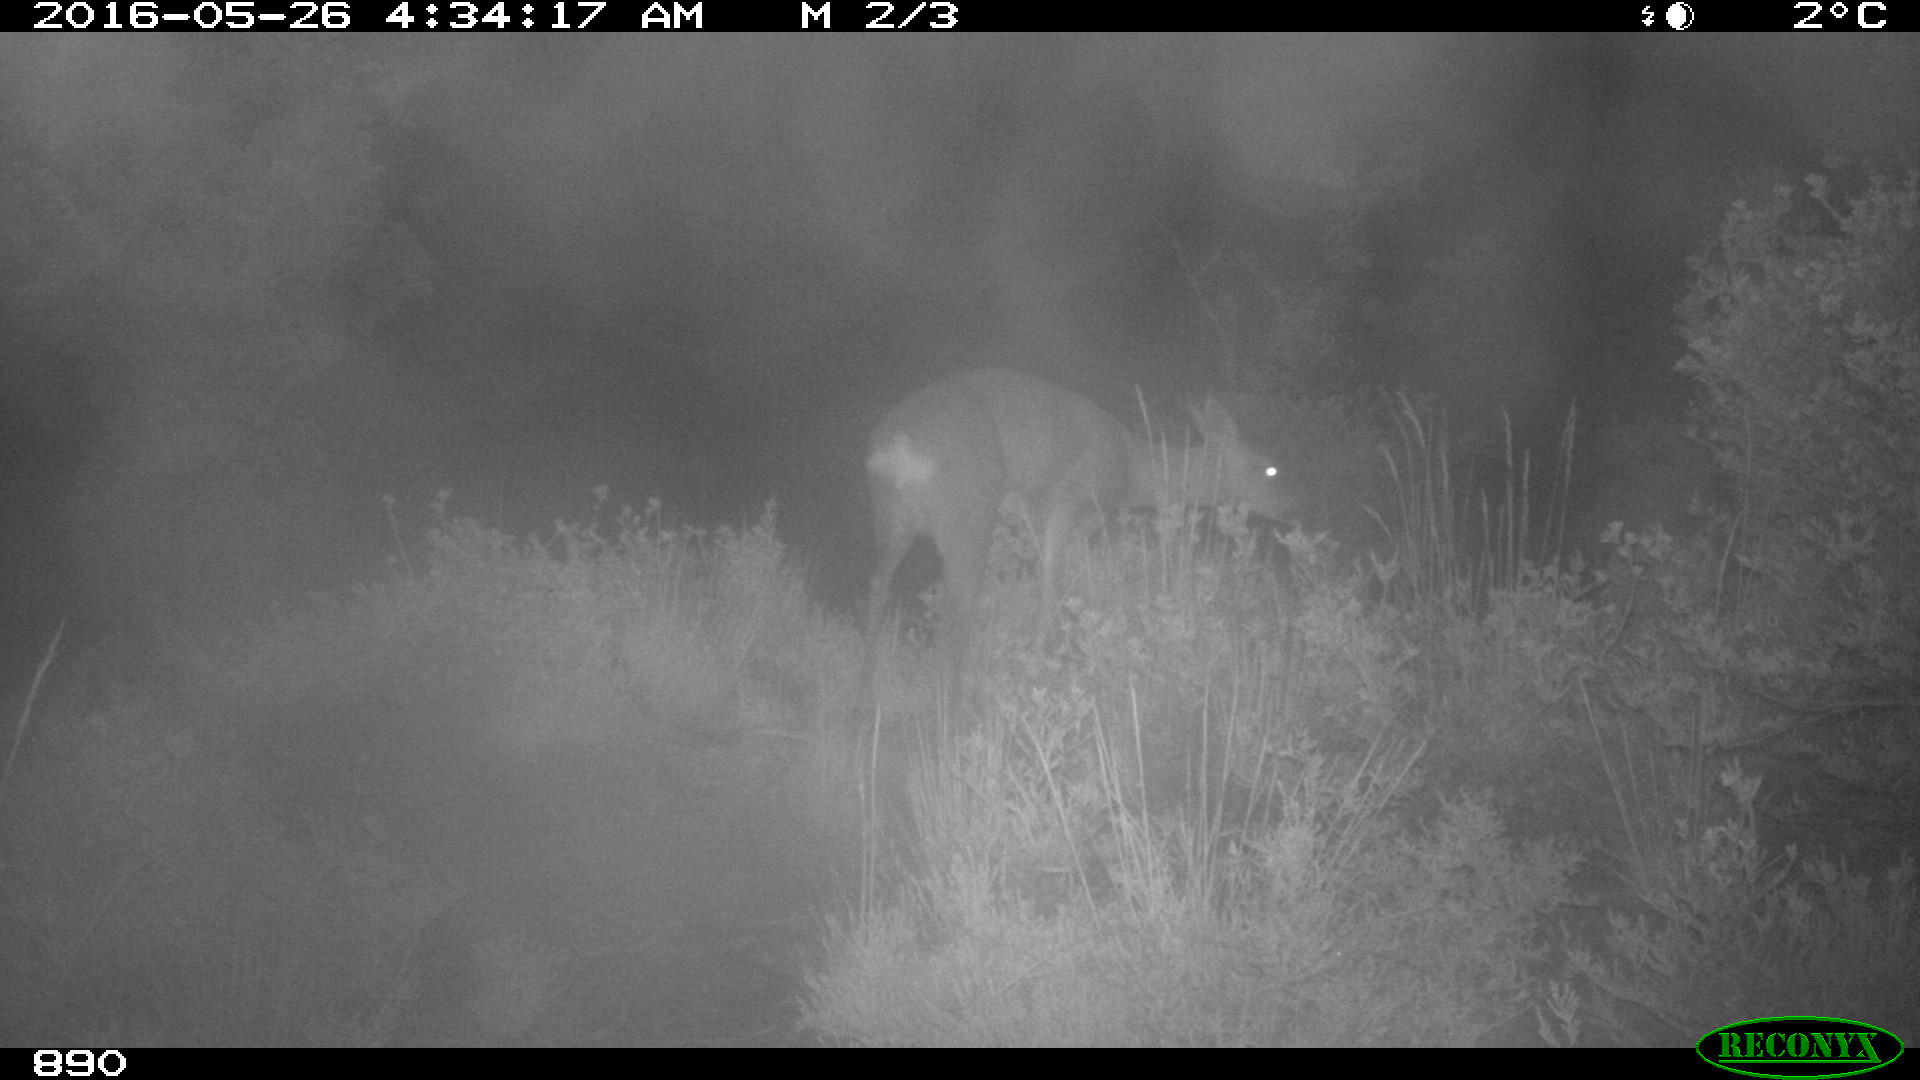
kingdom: Animalia
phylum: Chordata
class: Mammalia
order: Artiodactyla
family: Cervidae
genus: Capreolus
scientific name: Capreolus capreolus
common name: Western roe deer
